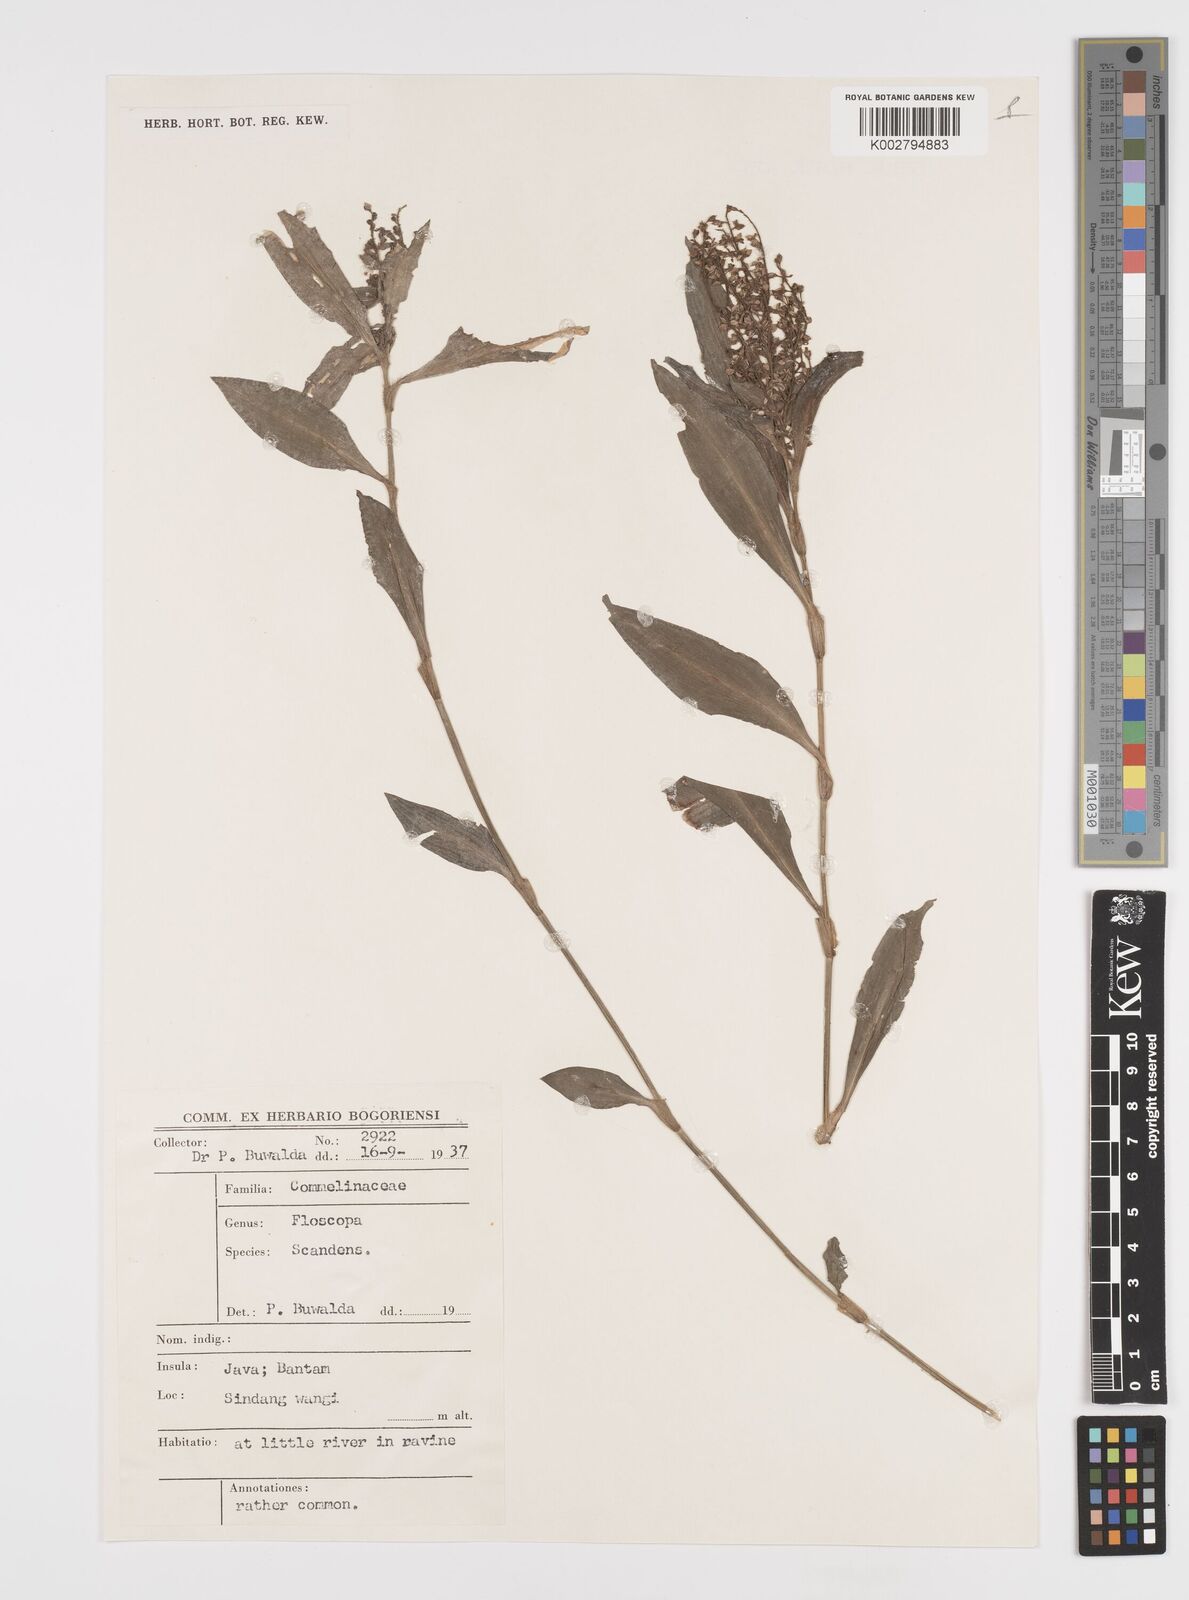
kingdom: Plantae
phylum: Tracheophyta
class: Liliopsida
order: Commelinales
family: Commelinaceae
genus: Floscopa
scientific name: Floscopa scandens
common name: Climbing flower cup
